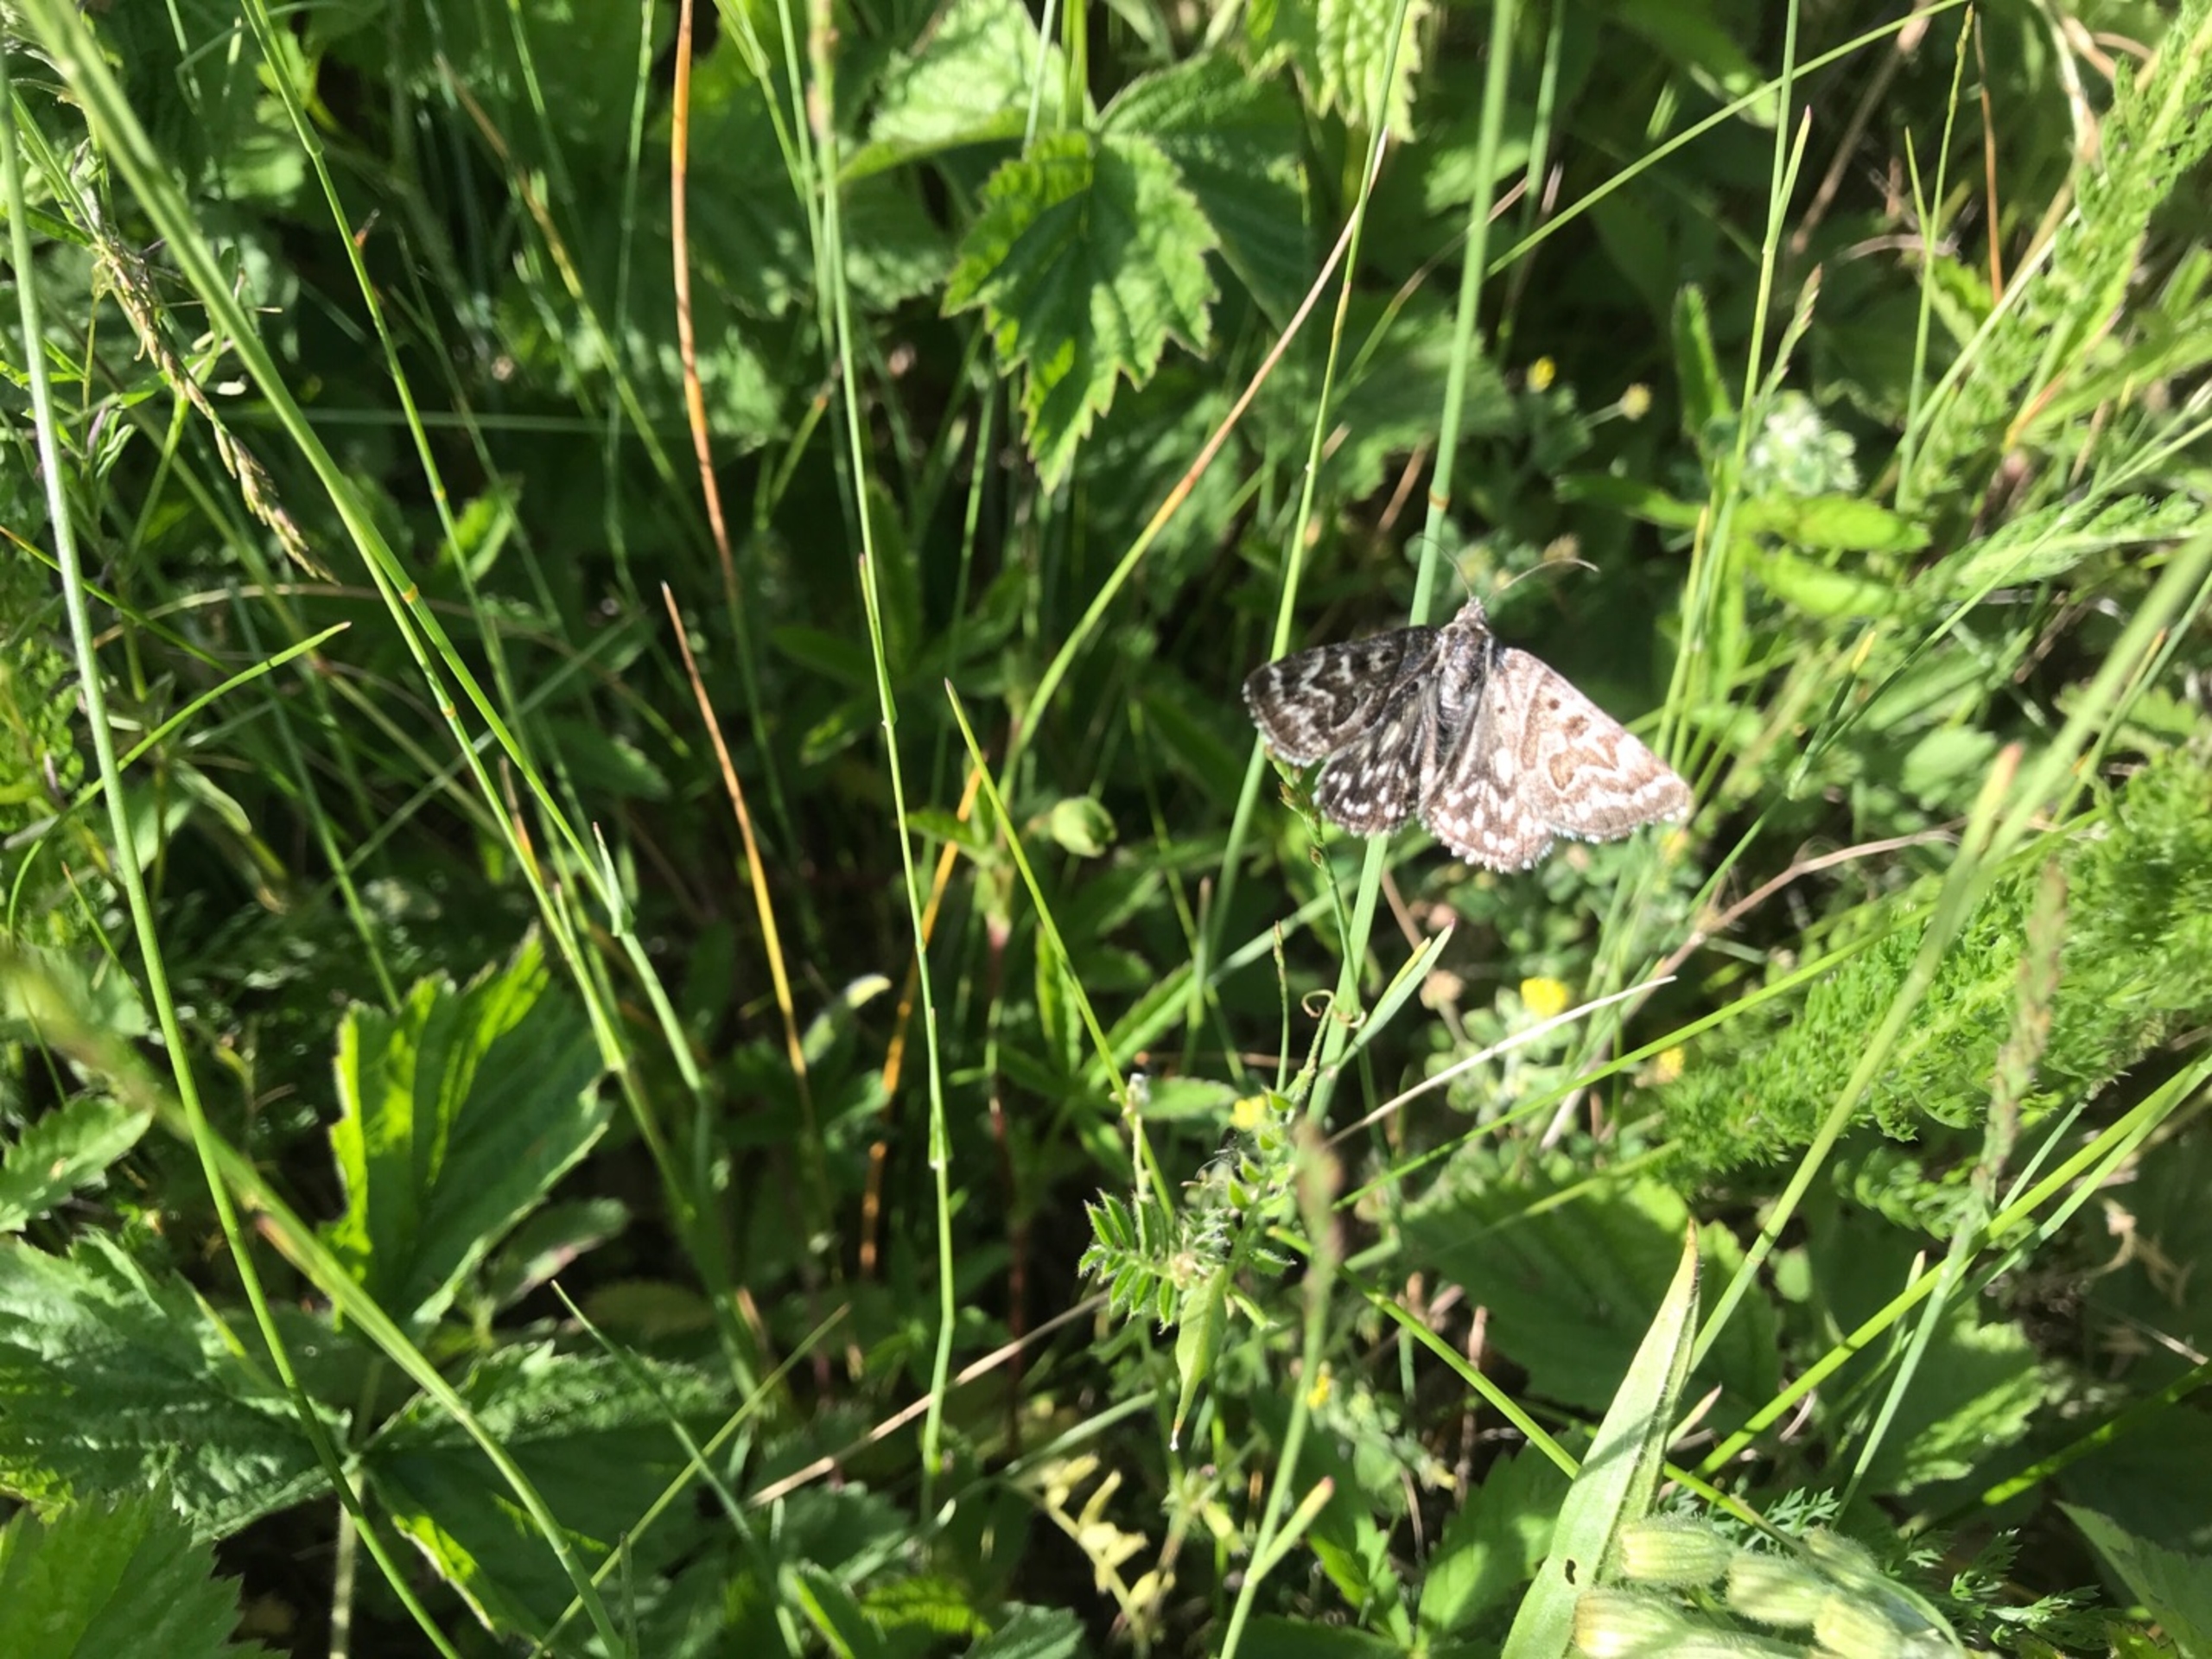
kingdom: Animalia
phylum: Arthropoda
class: Insecta
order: Lepidoptera
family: Erebidae
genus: Callistege
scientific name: Callistege mi
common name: Marmoreret kløverugle
